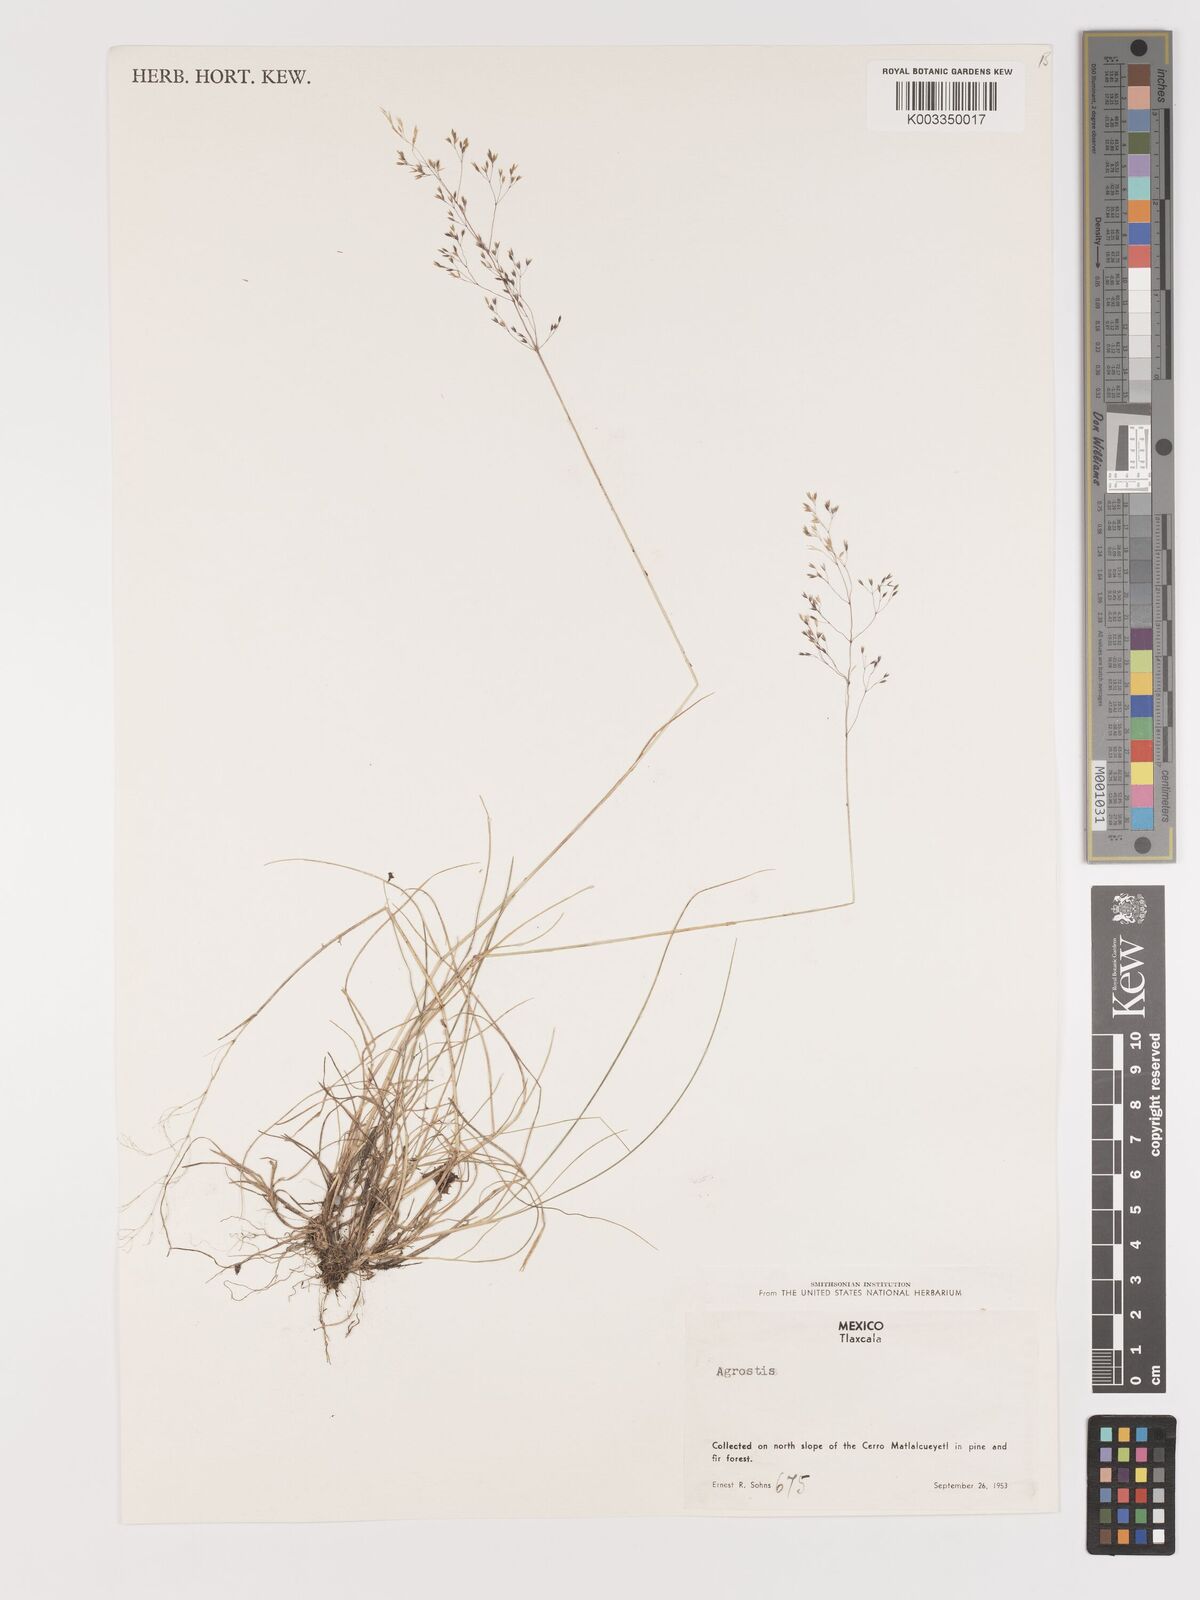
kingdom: Plantae
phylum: Tracheophyta
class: Liliopsida
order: Poales
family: Poaceae
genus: Agrostis
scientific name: Agrostis
